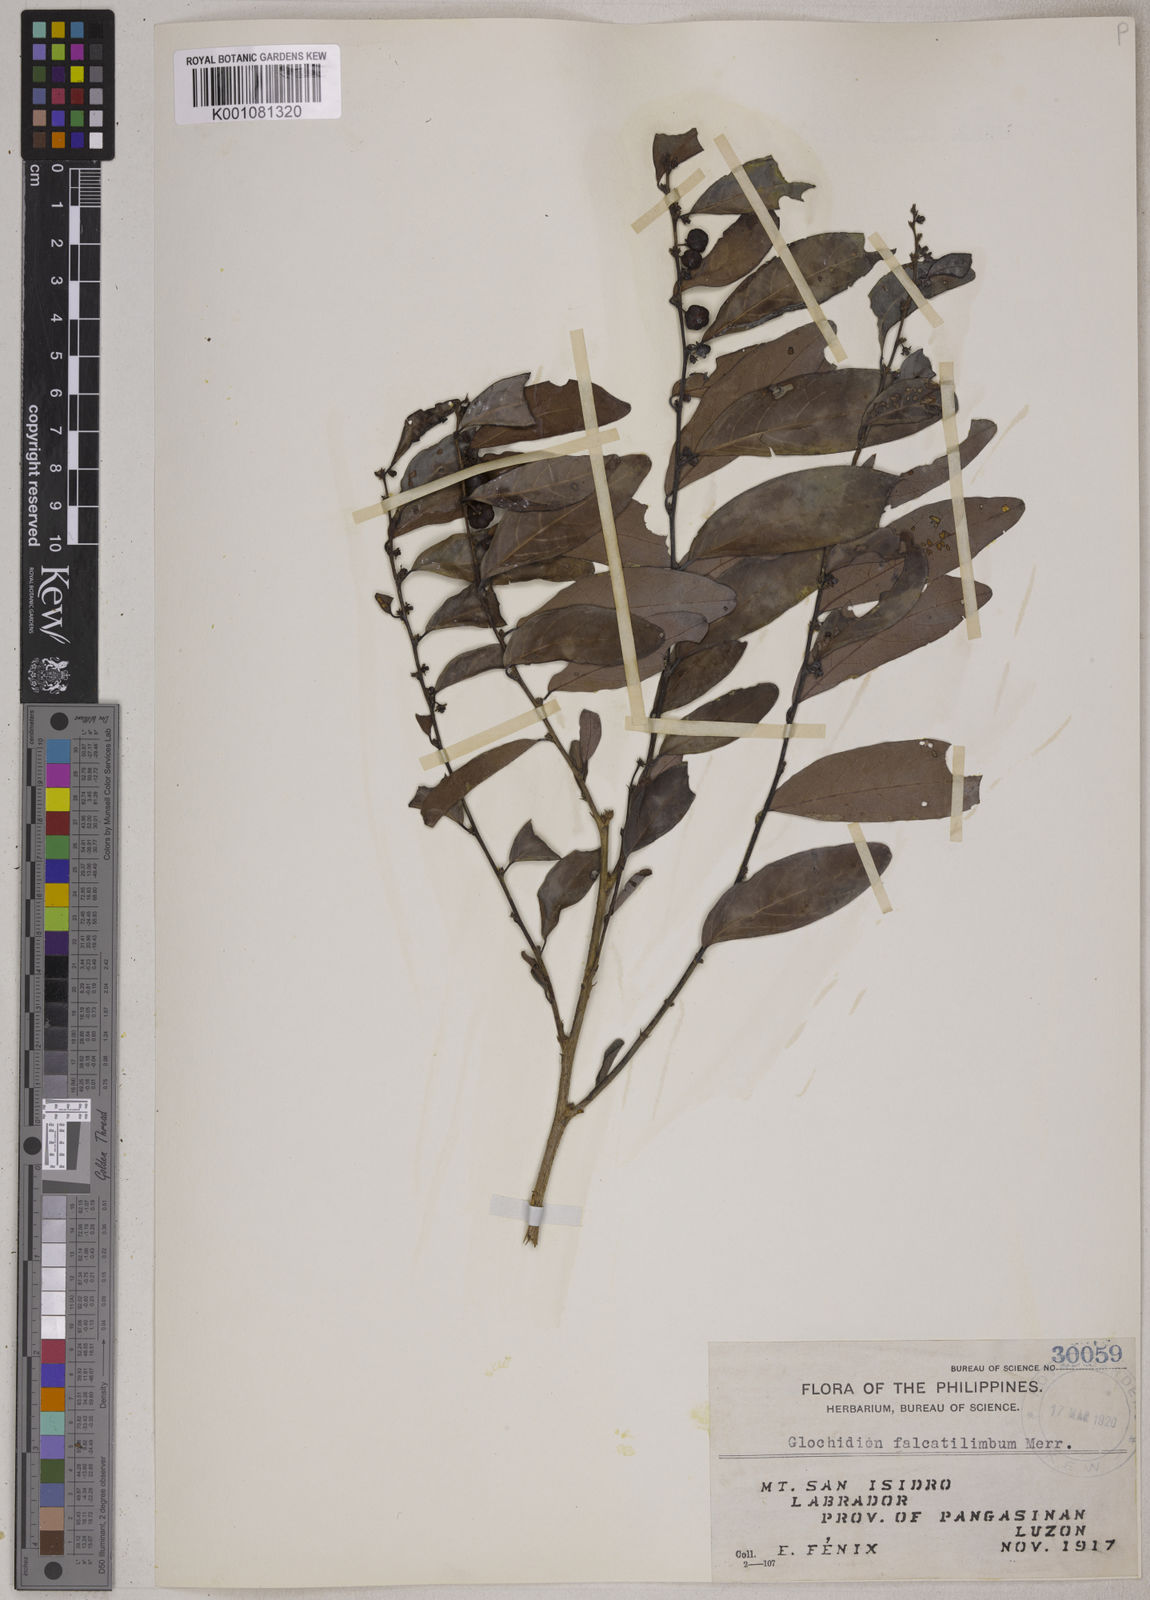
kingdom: Plantae
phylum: Tracheophyta
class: Magnoliopsida
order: Malpighiales
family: Phyllanthaceae
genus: Glochidion
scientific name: Glochidion falcatilimbum
